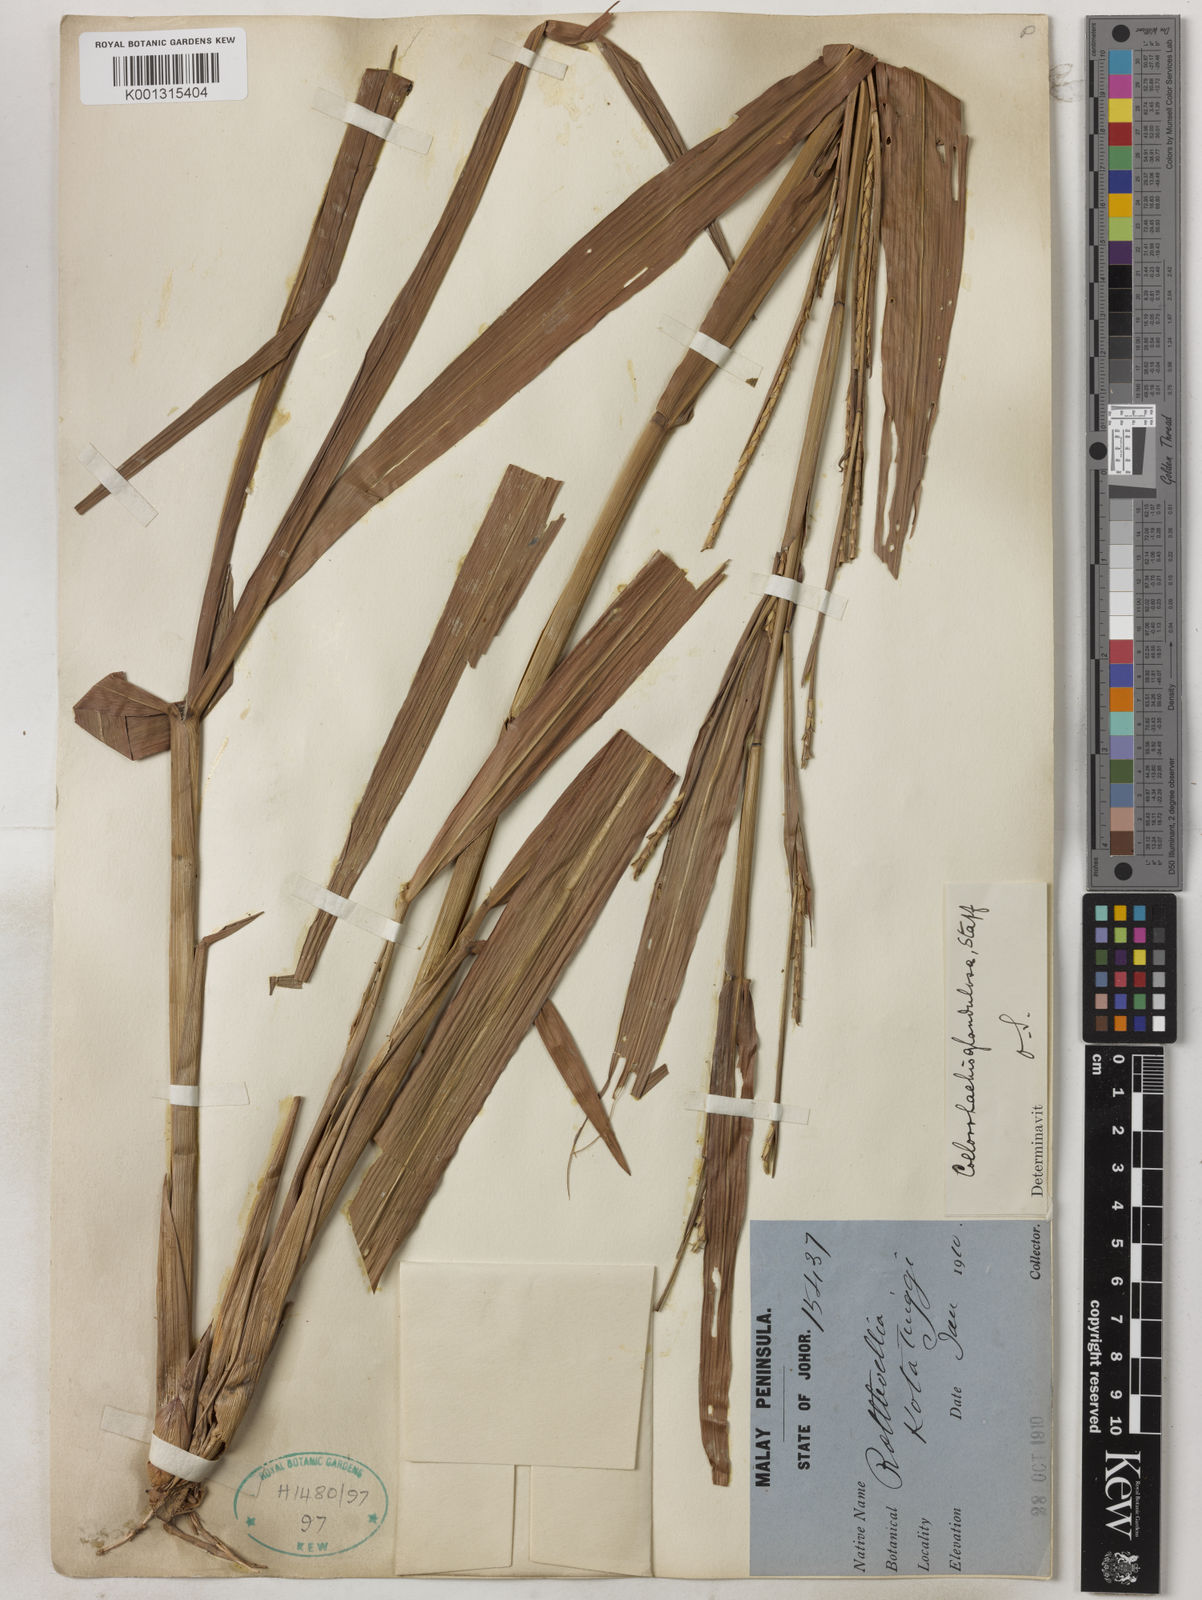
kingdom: Plantae
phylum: Tracheophyta
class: Liliopsida
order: Poales
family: Poaceae
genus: Rottboellia
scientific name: Rottboellia glandulosa
